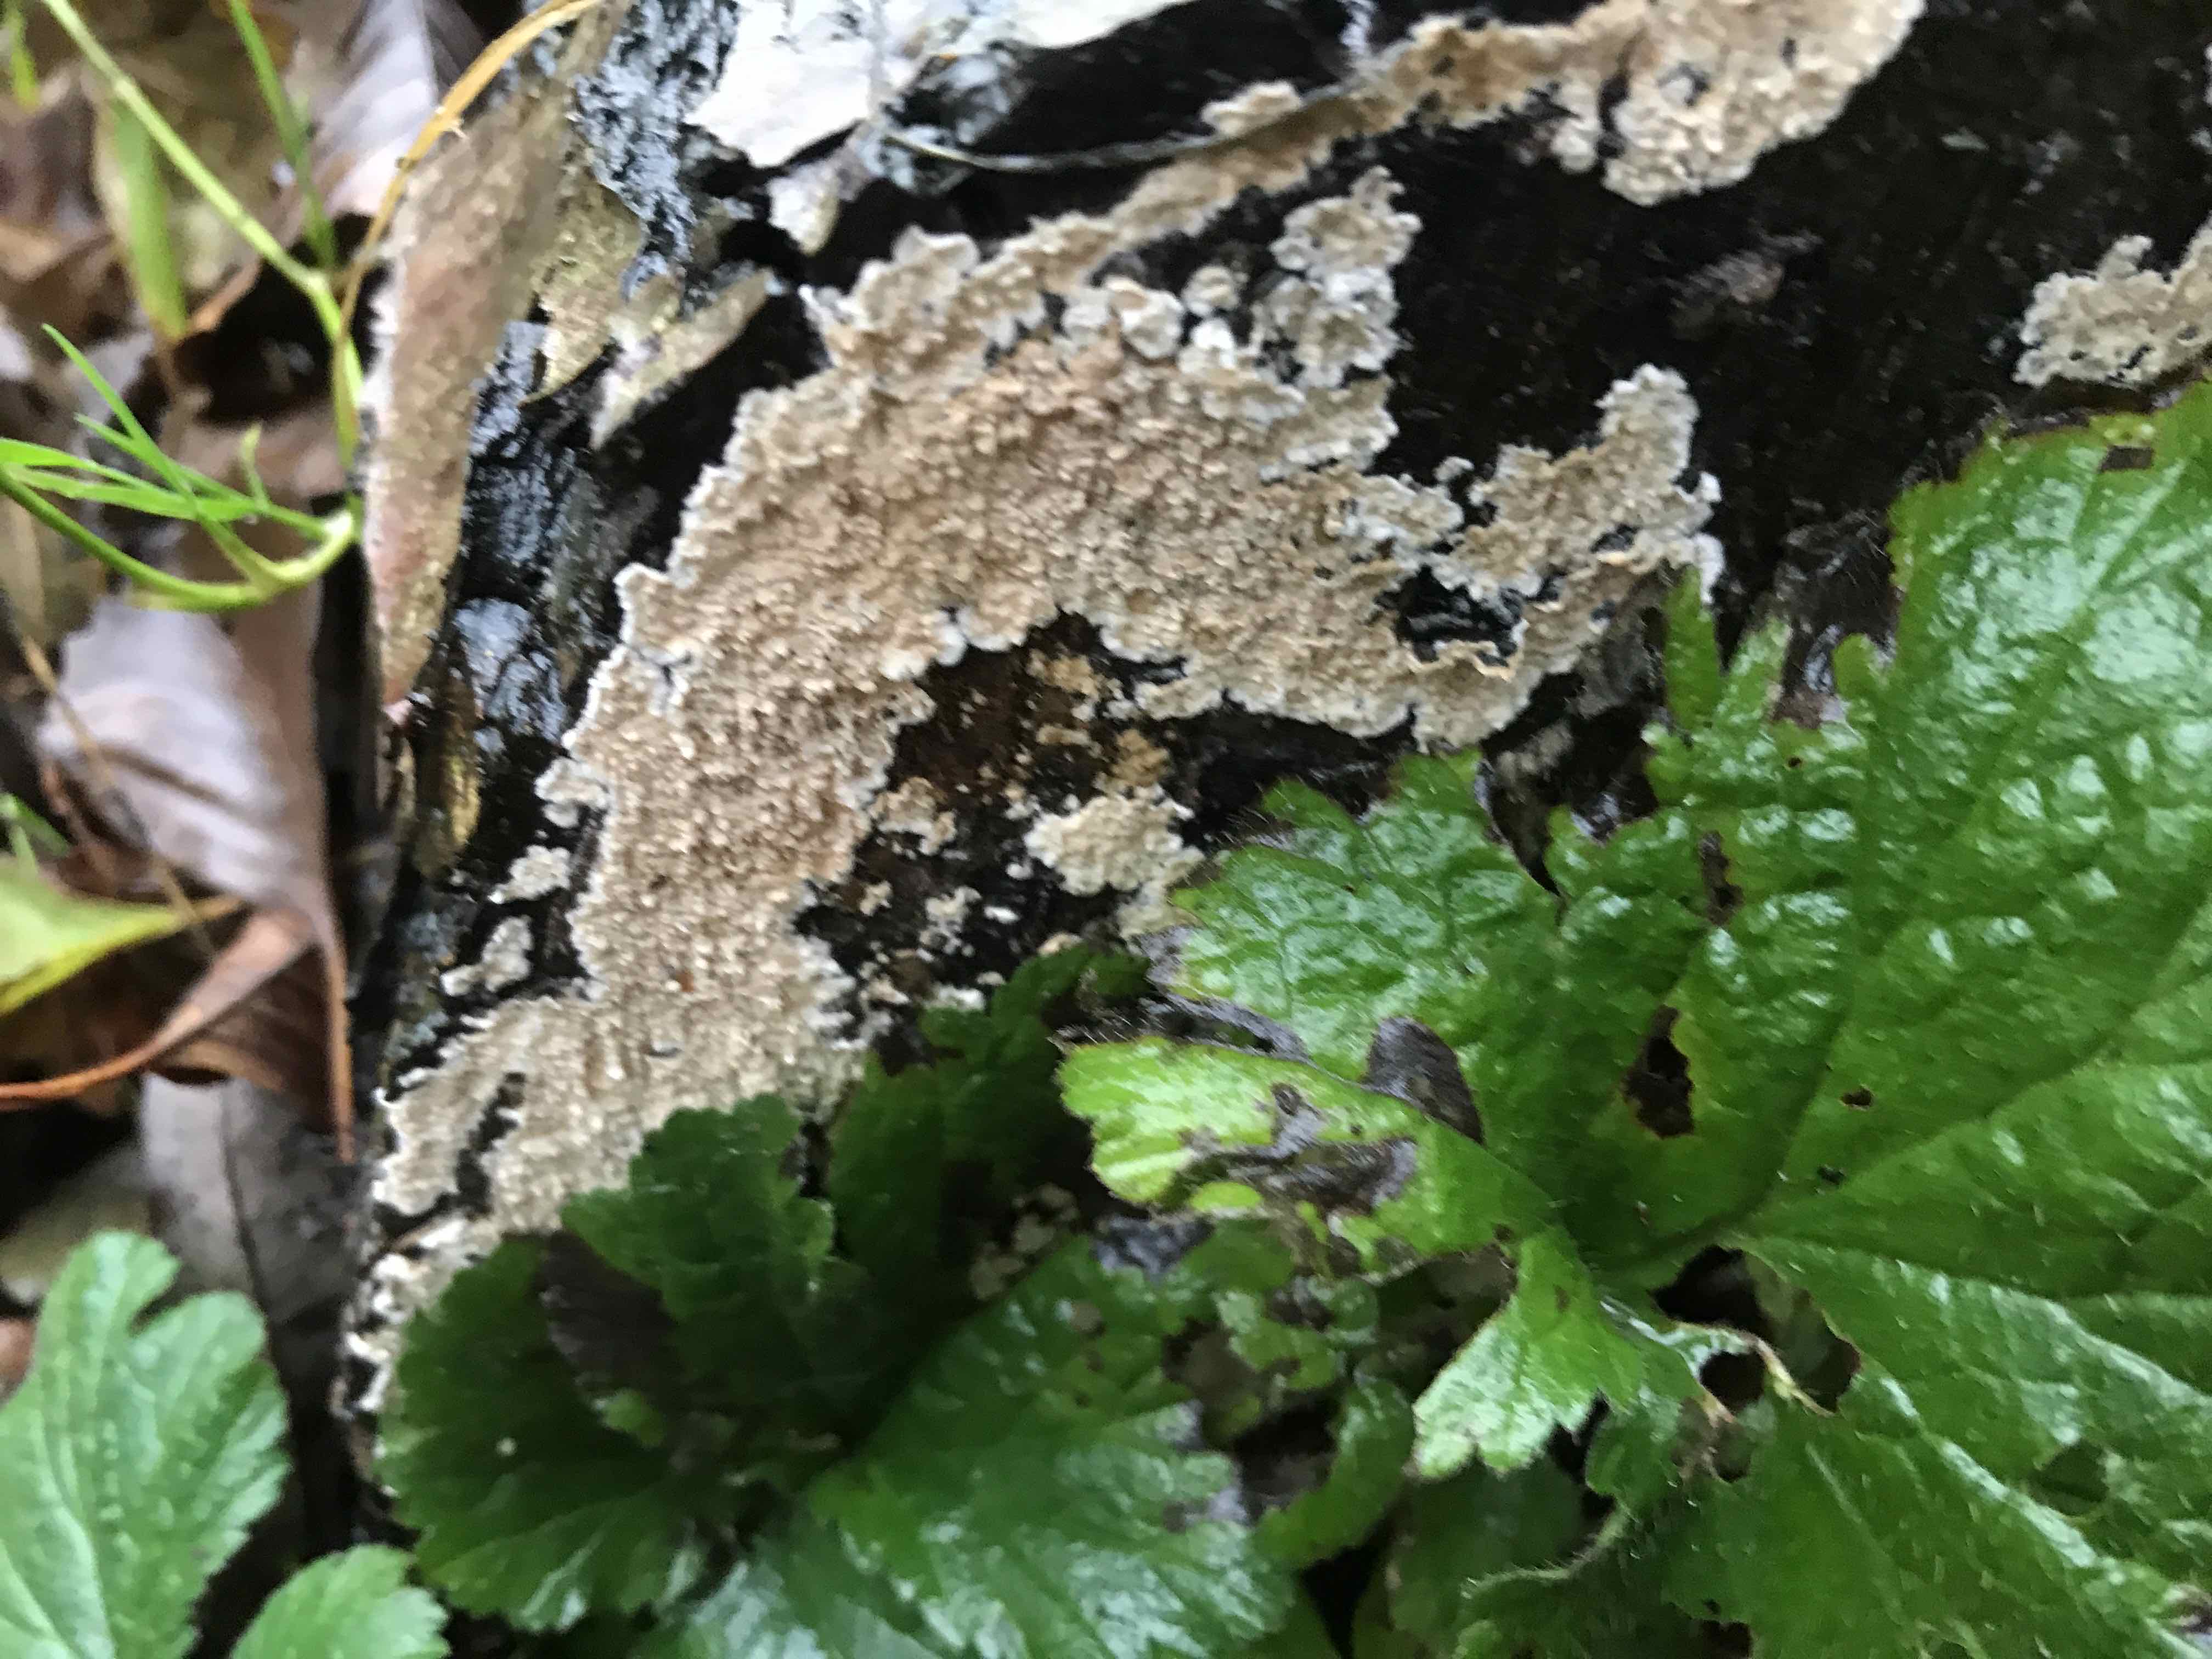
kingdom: Fungi
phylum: Basidiomycota
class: Agaricomycetes
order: Russulales
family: Peniophoraceae
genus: Peniophora
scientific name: Peniophora incarnata
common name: laksefarvet voksskind
